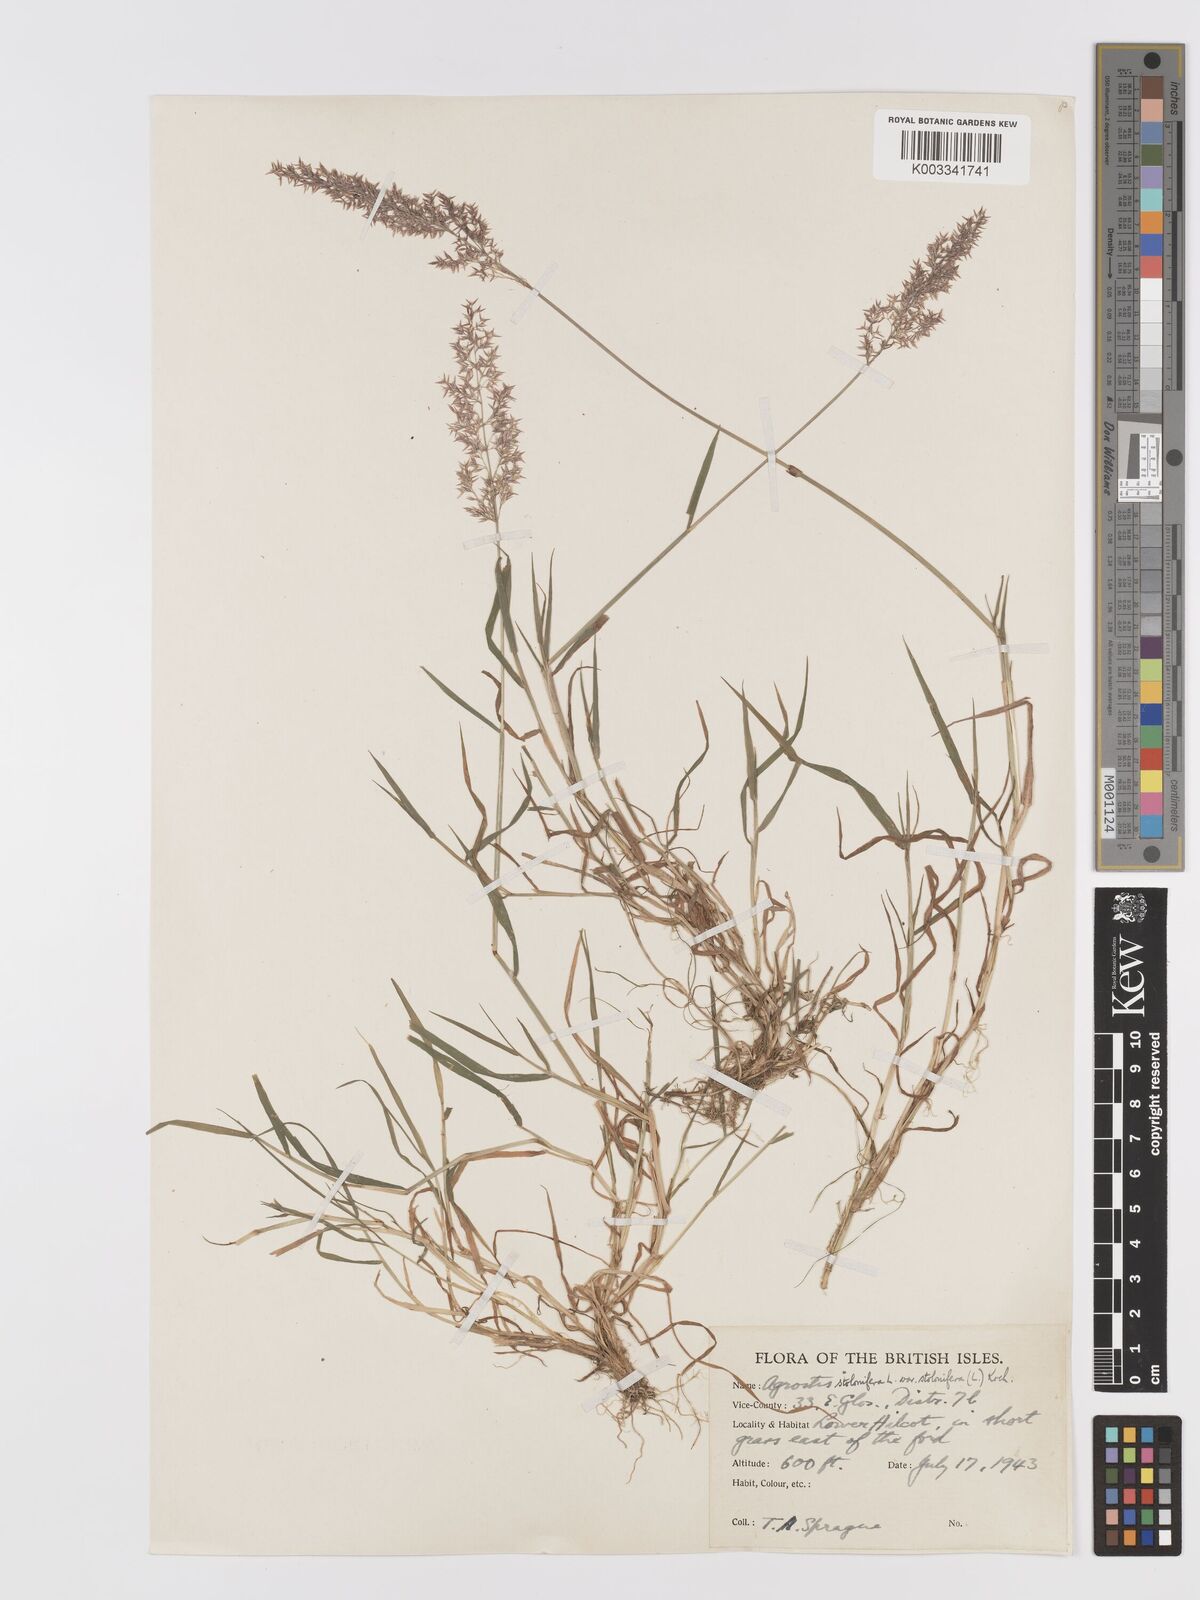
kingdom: Plantae
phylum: Tracheophyta
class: Liliopsida
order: Poales
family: Poaceae
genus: Agrostis
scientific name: Agrostis stolonifera
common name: Creeping bentgrass
